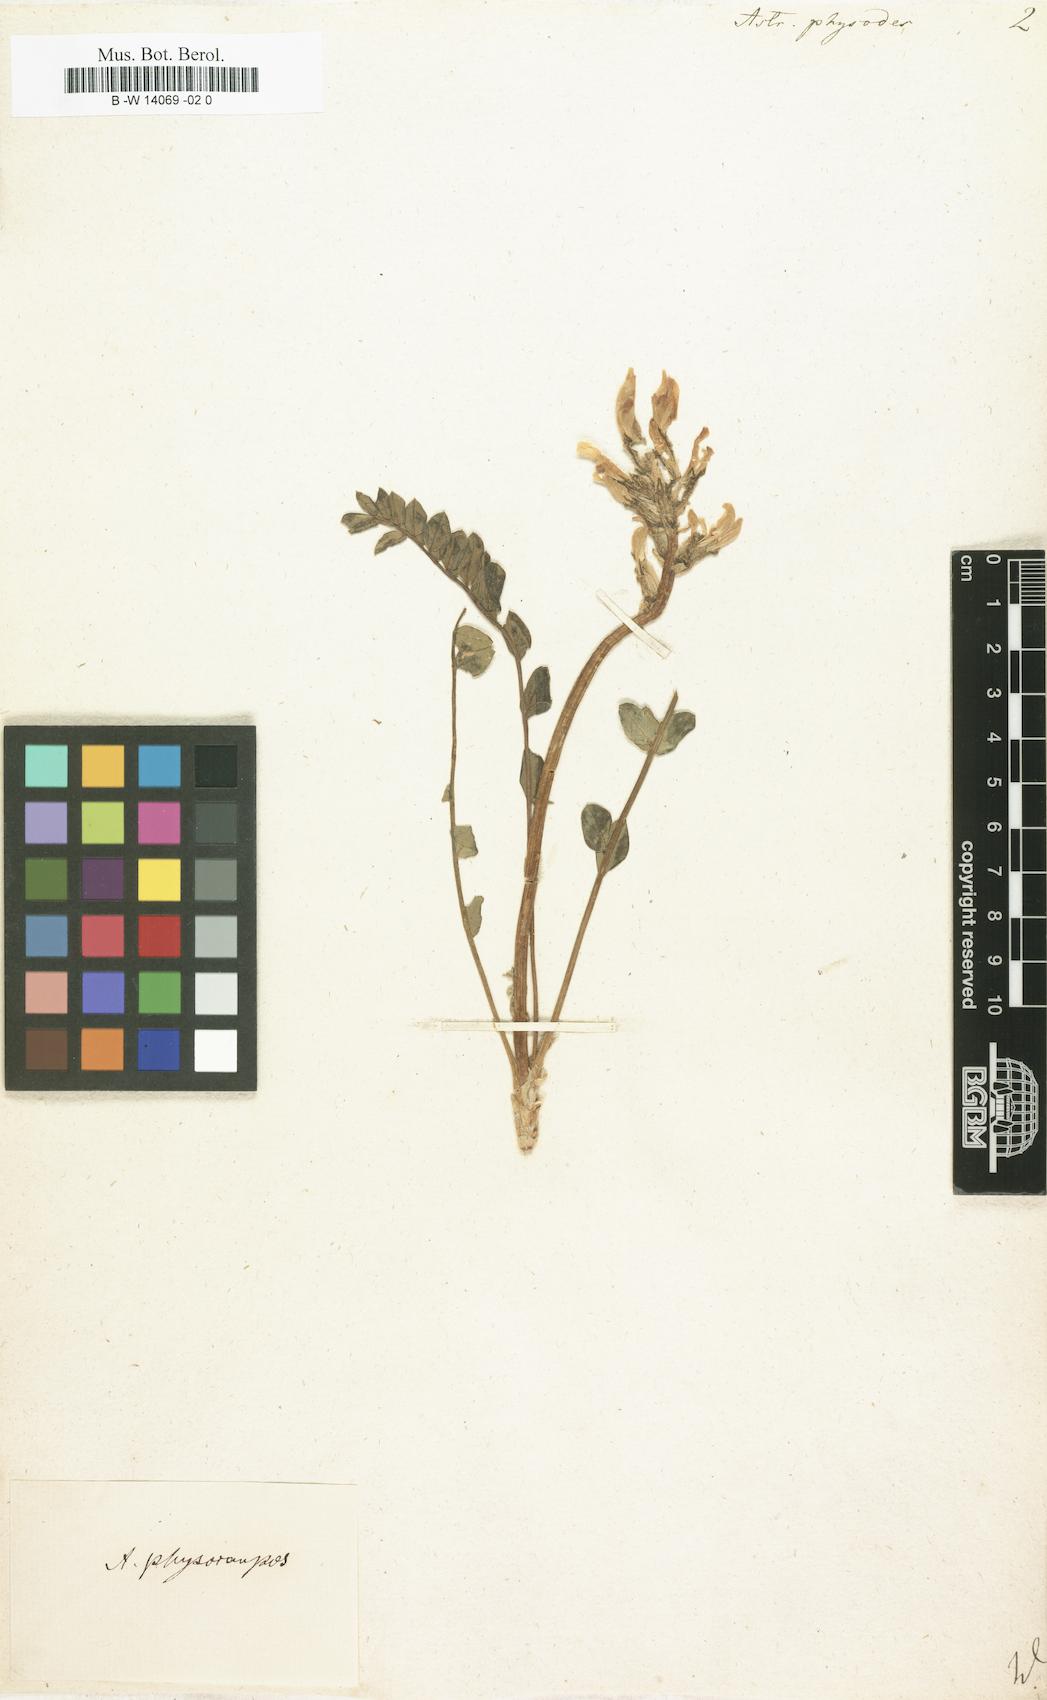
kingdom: Plantae
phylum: Tracheophyta
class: Magnoliopsida
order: Fabales
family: Fabaceae
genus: Astragalus
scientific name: Astragalus physodes
